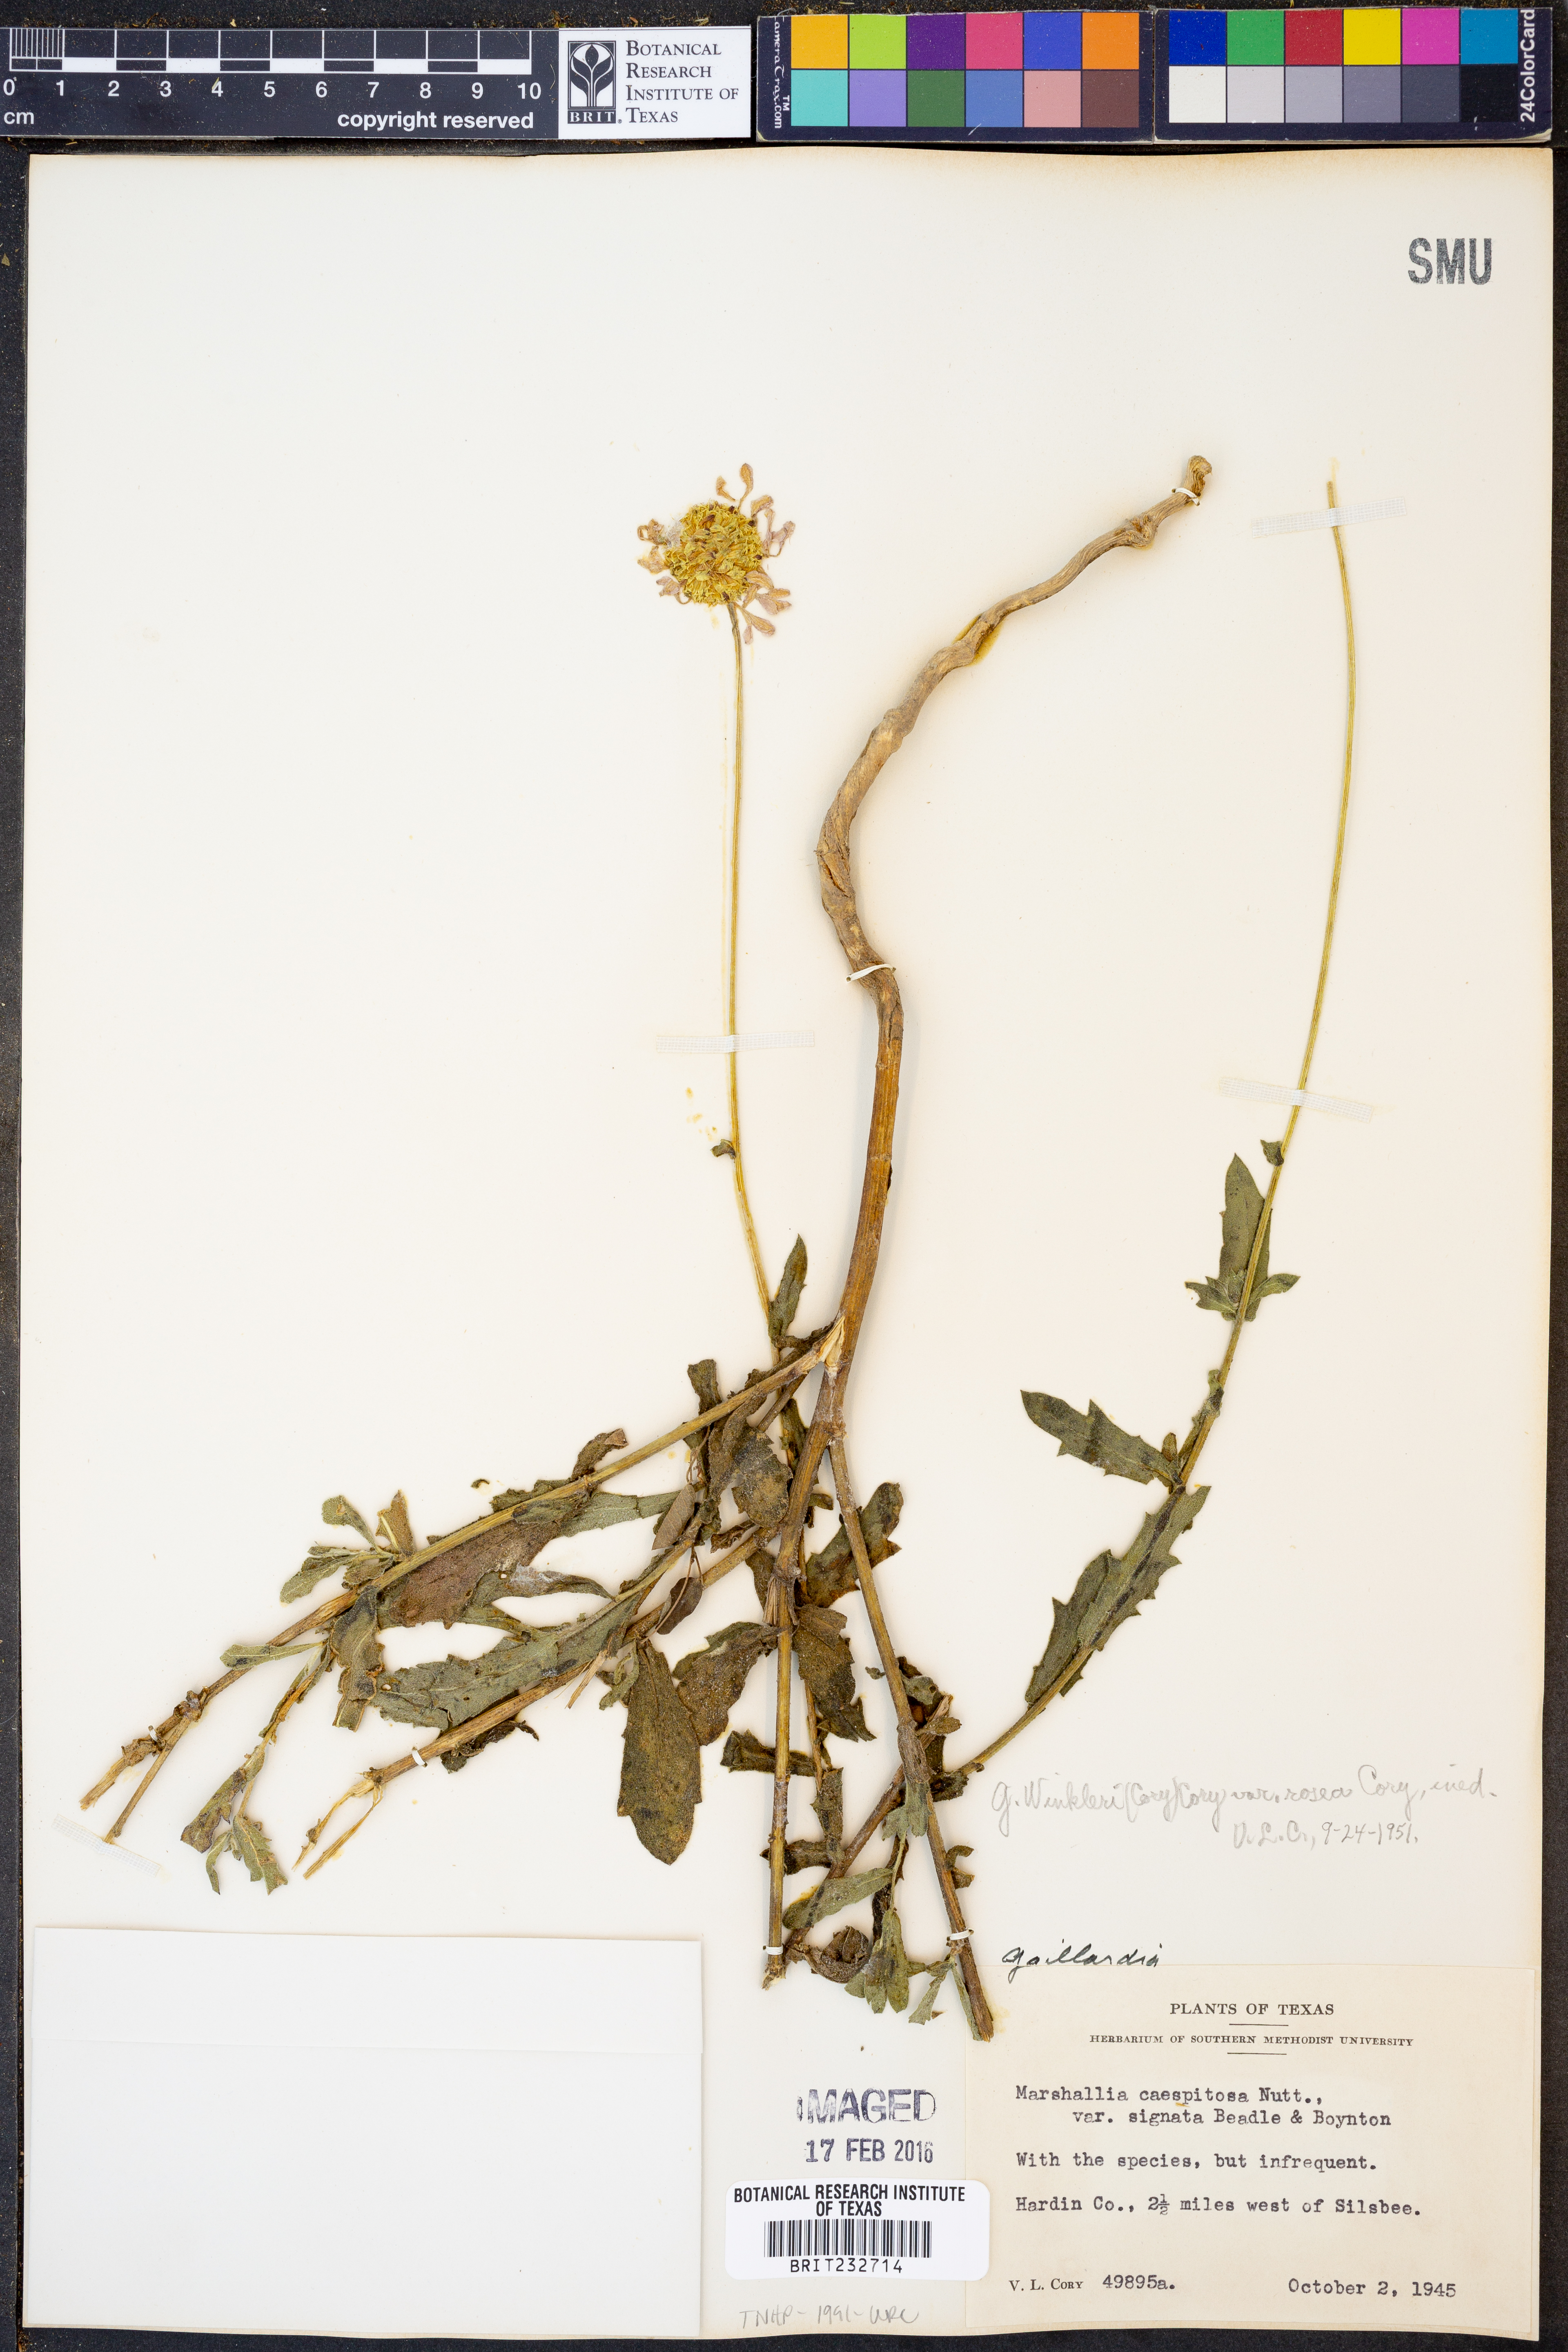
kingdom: Plantae
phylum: Tracheophyta
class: Magnoliopsida
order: Asterales
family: Asteraceae
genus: Gaillardia
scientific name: Gaillardia
